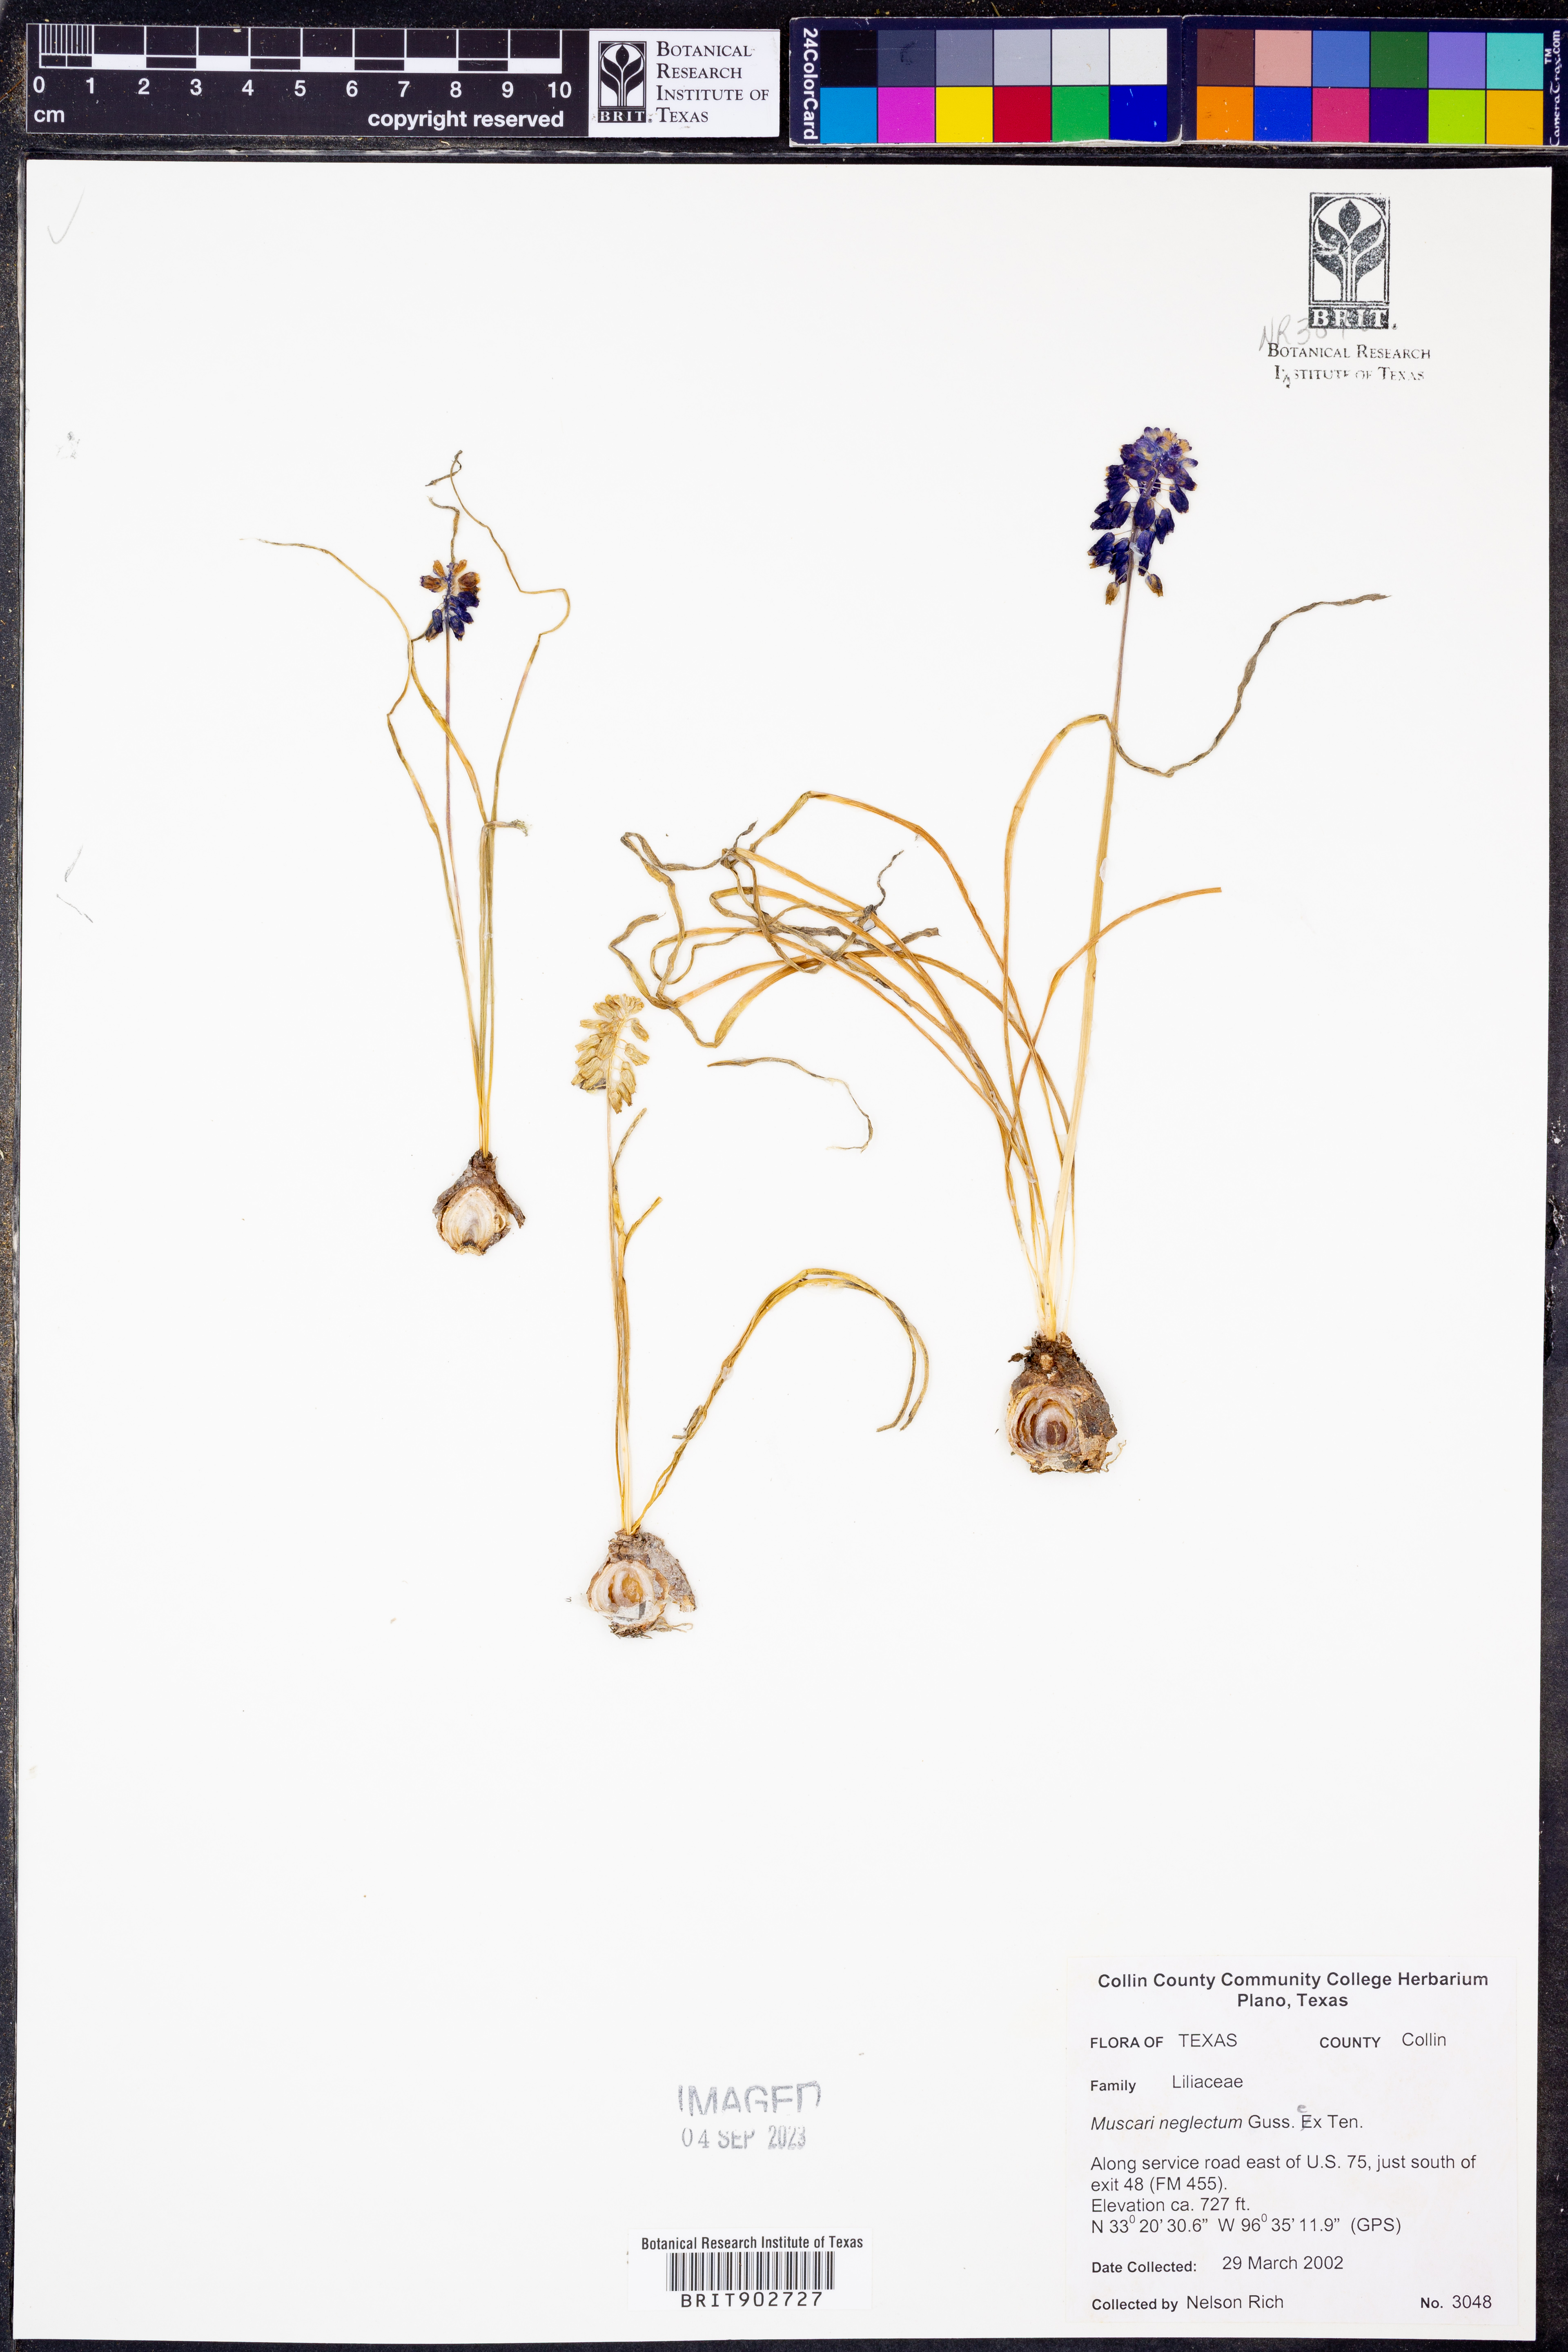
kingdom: Plantae
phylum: Tracheophyta
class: Liliopsida
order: Asparagales
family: Asparagaceae
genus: Muscari
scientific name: Muscari neglectum
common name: Grape-hyacinth
